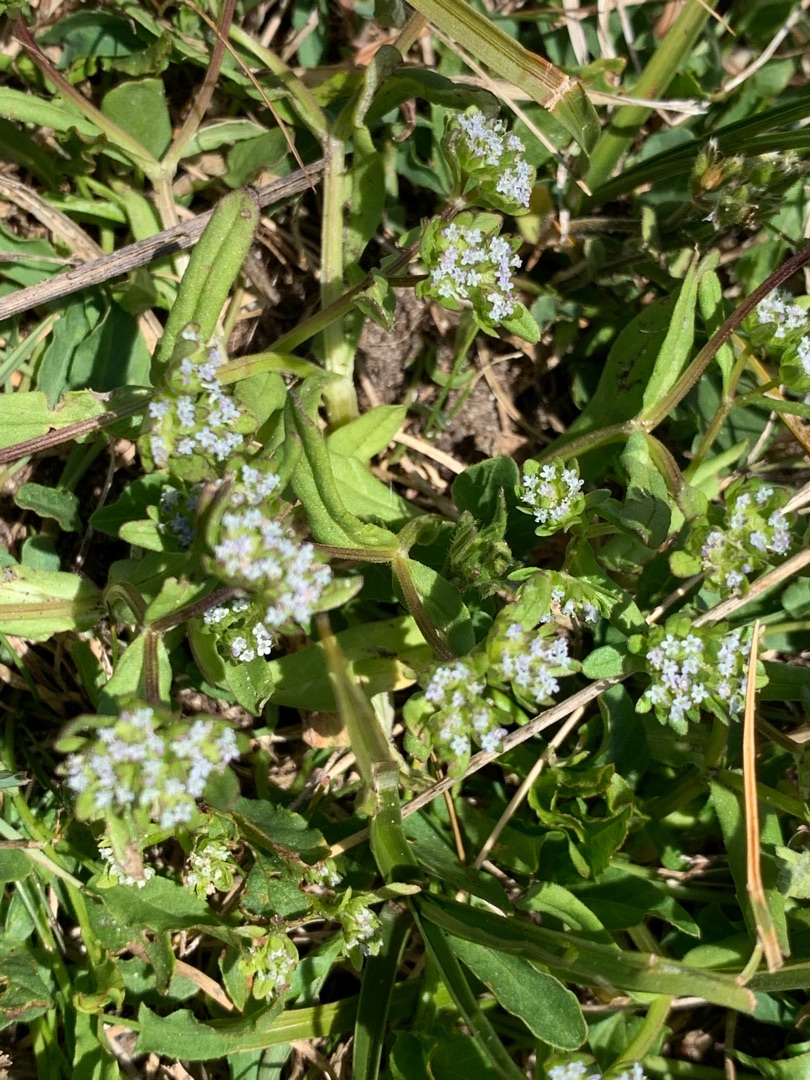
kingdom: Plantae
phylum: Tracheophyta
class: Magnoliopsida
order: Dipsacales
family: Caprifoliaceae
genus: Valerianella
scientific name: Valerianella locusta
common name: Tandfri vårsalat
